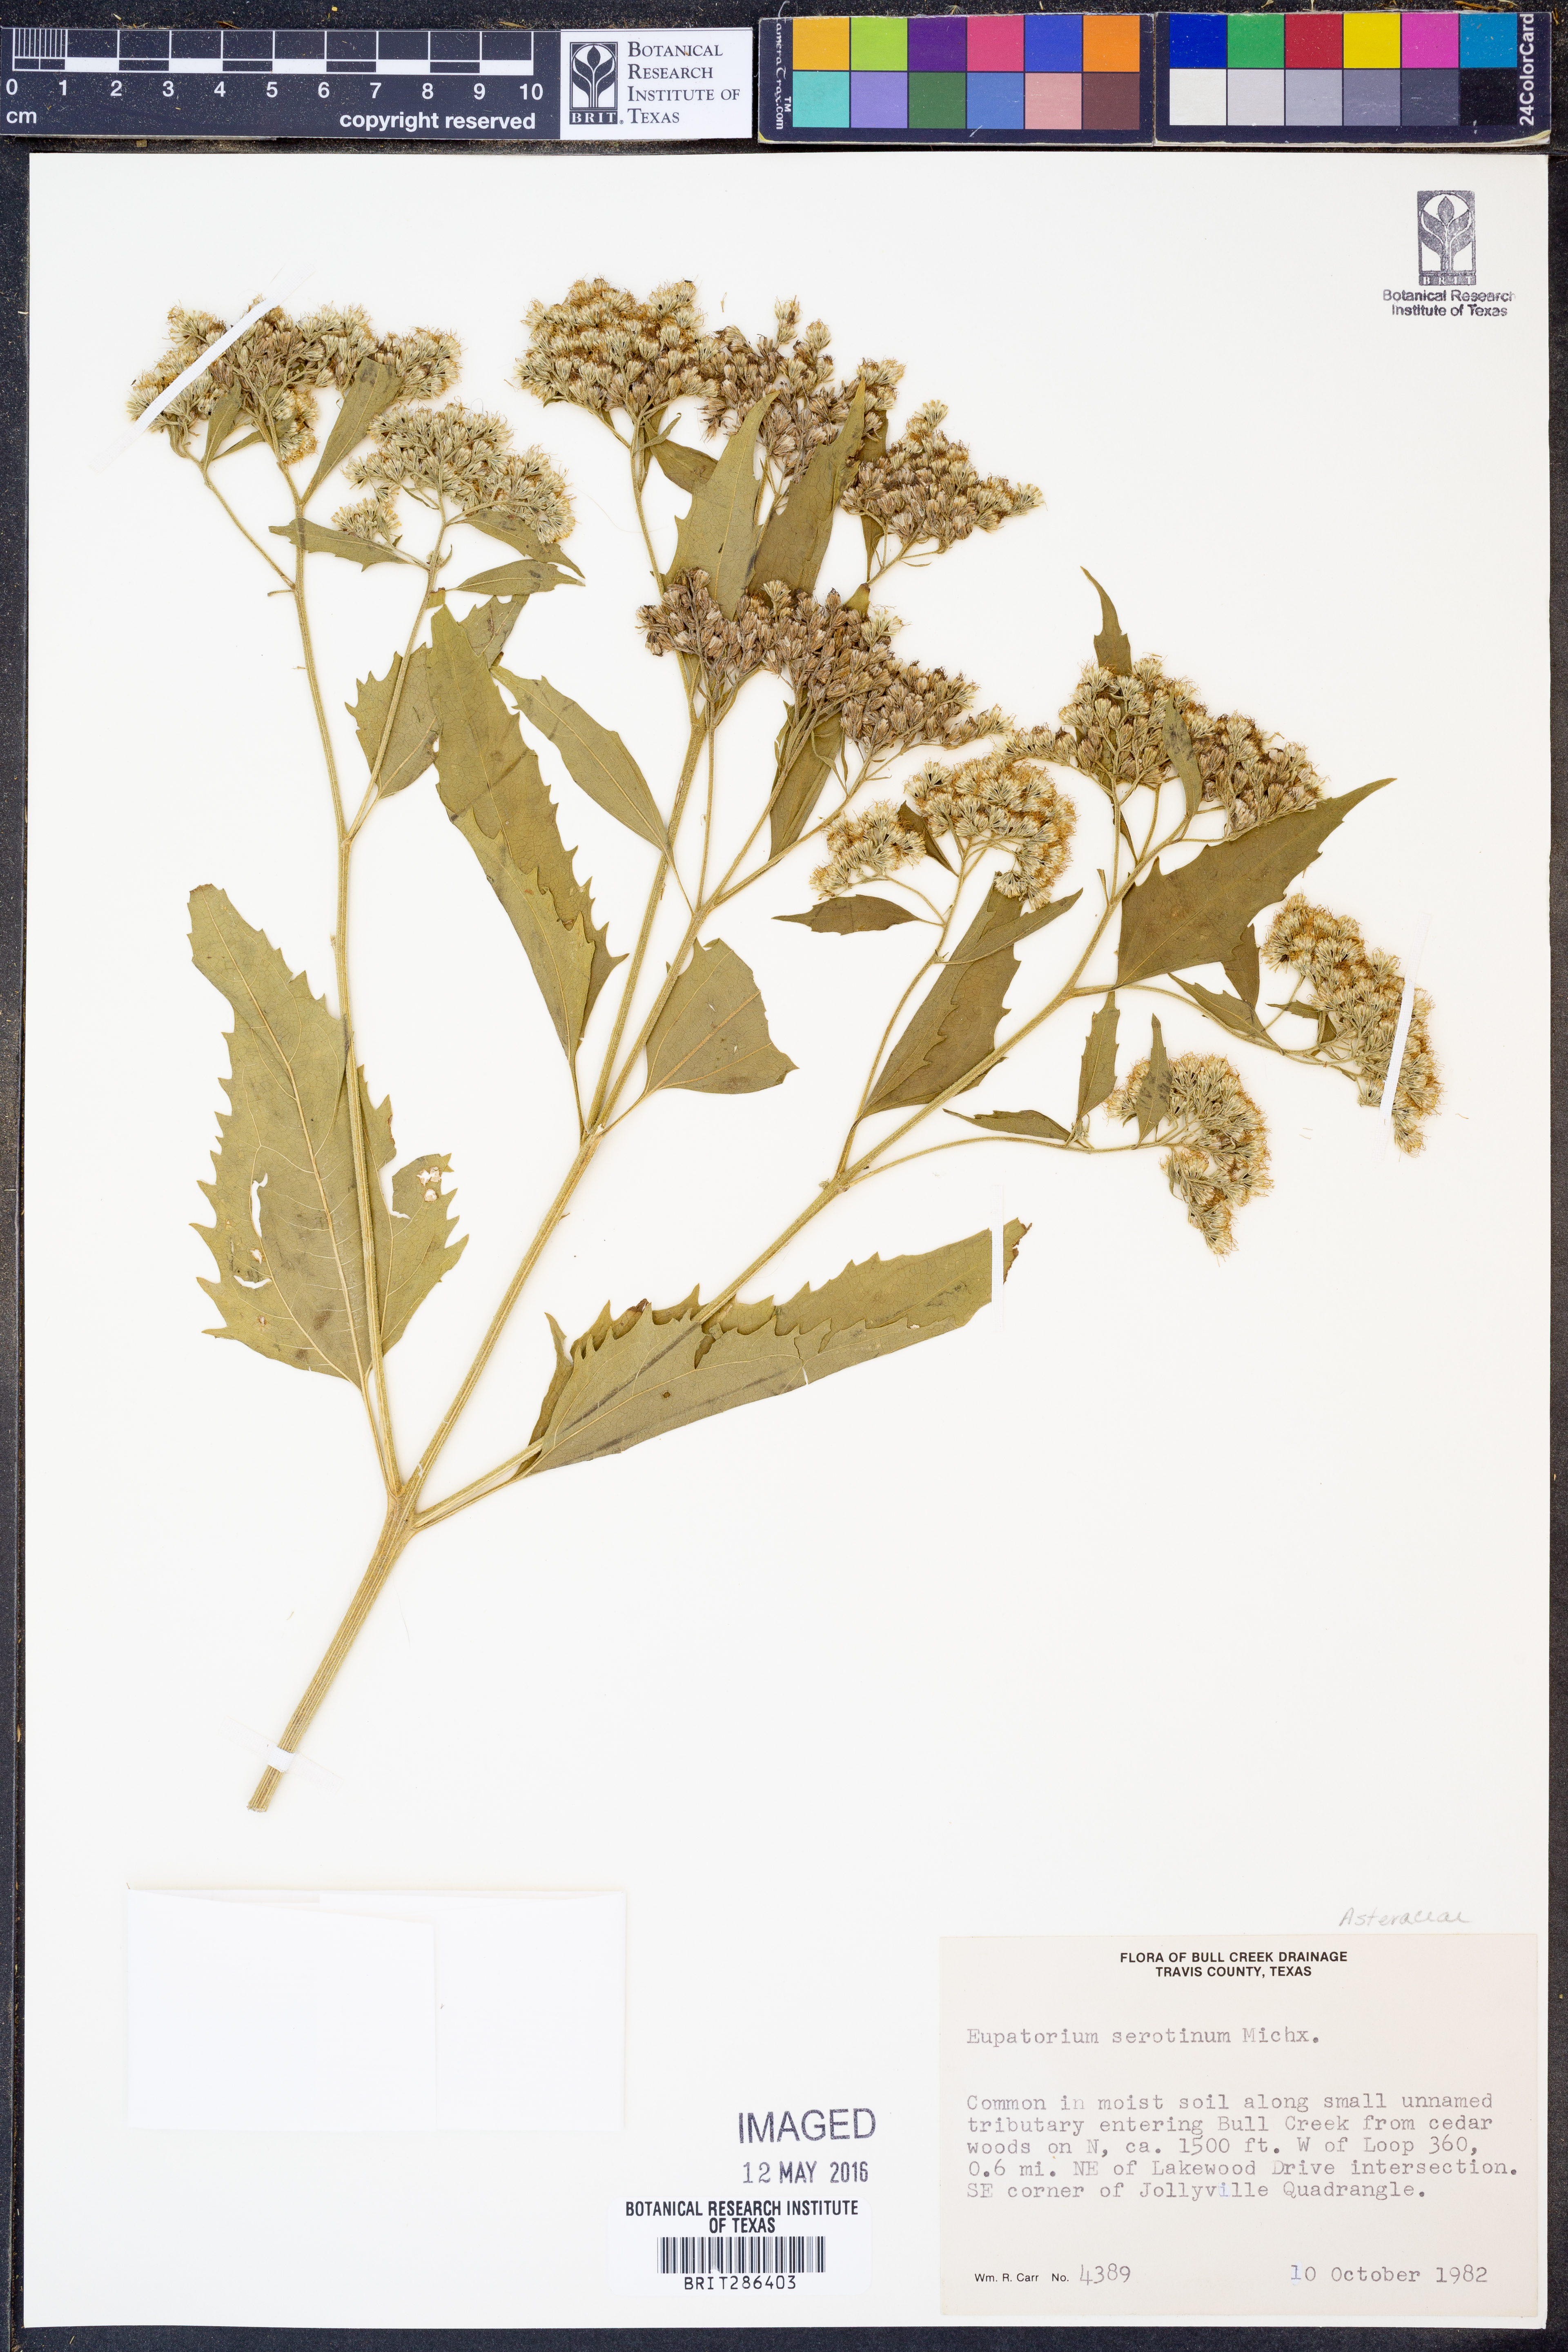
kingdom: Plantae
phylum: Tracheophyta
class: Magnoliopsida
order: Asterales
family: Asteraceae
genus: Eupatorium
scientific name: Eupatorium serotinum
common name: Late boneset
